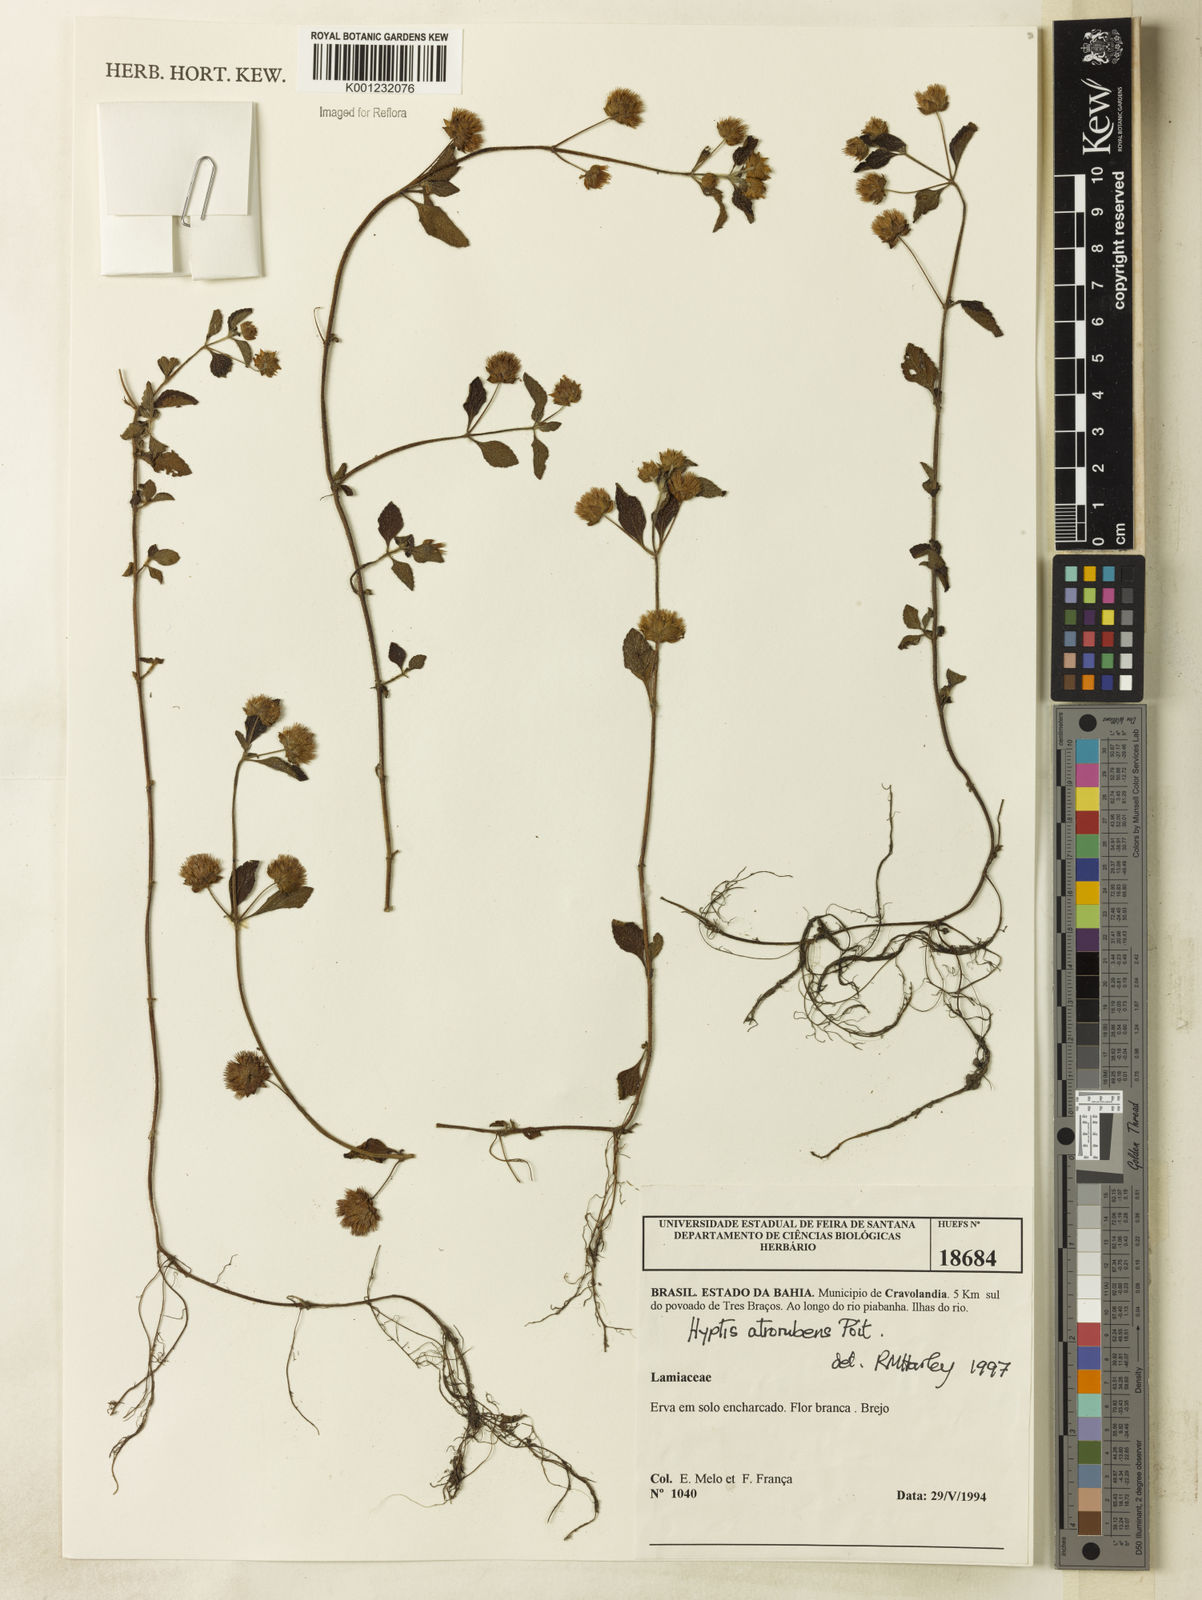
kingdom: Plantae
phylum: Tracheophyta
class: Magnoliopsida
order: Lamiales
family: Lamiaceae
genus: Hyptis
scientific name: Hyptis atrorubens
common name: Lanmant
